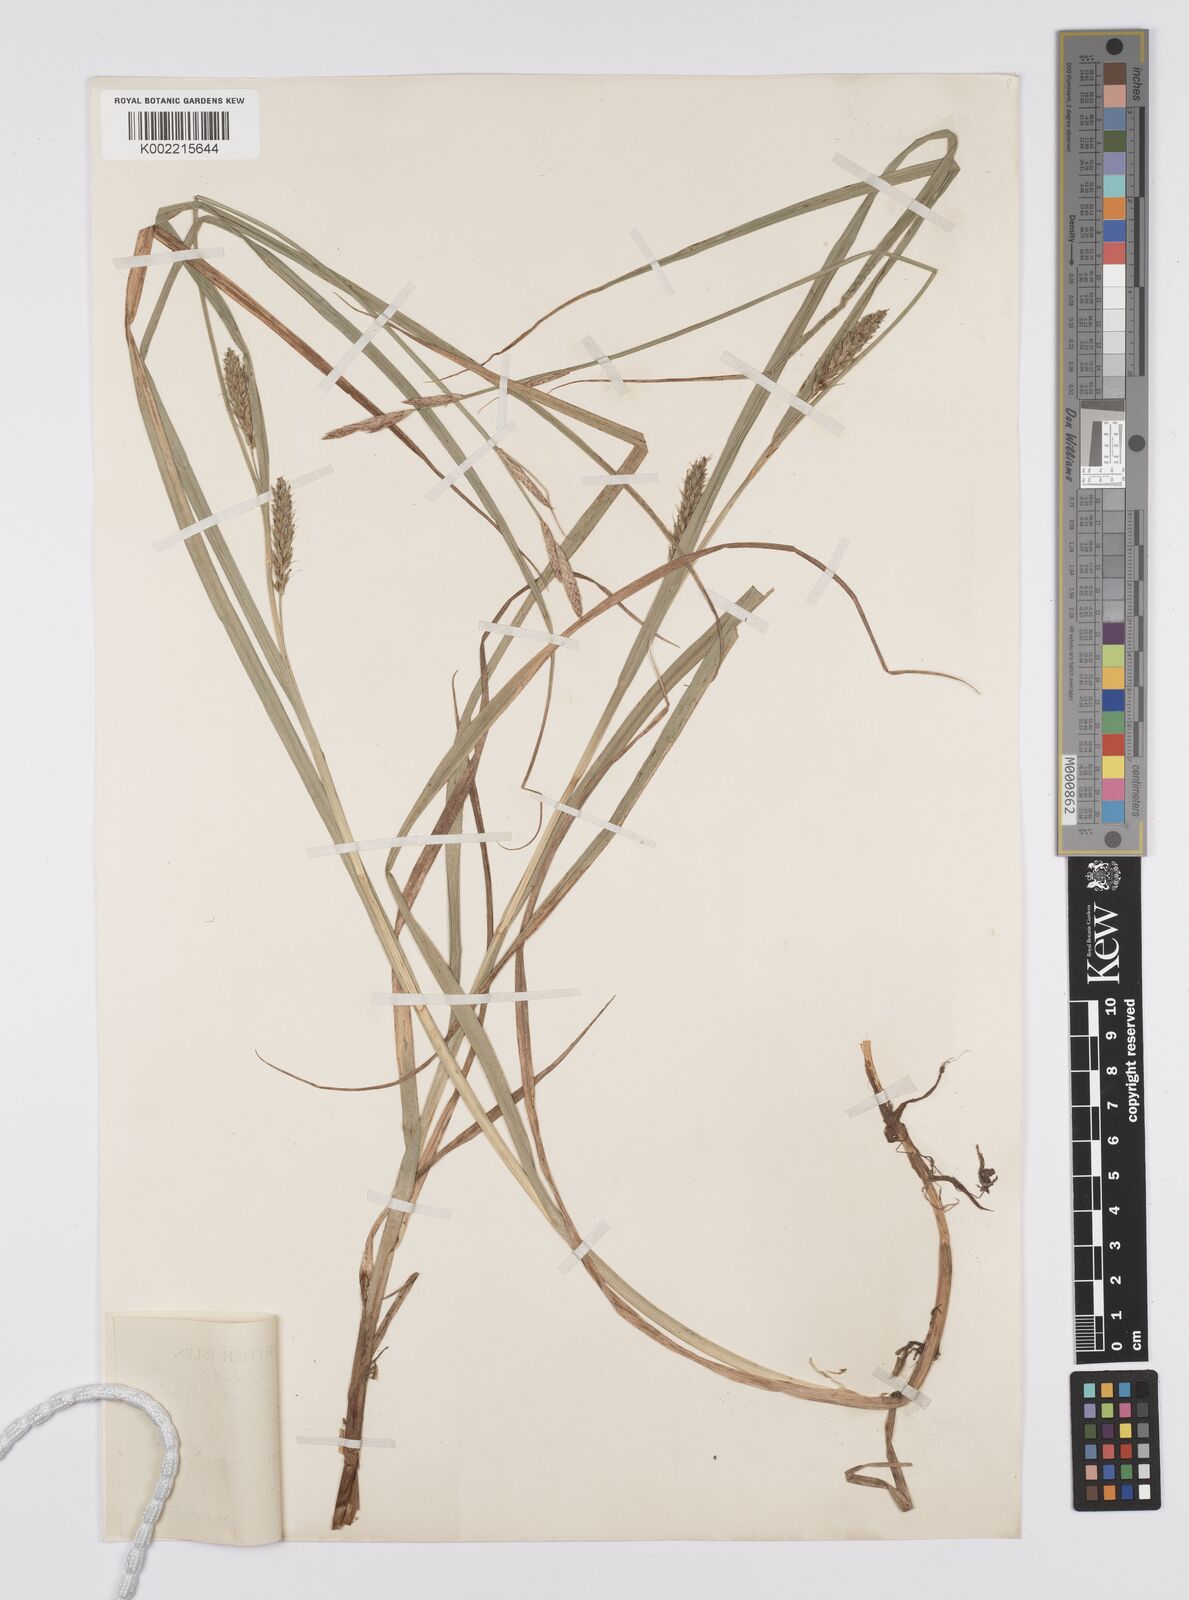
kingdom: Plantae
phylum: Tracheophyta
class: Liliopsida
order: Poales
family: Cyperaceae
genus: Carex
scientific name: Carex hirta
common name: Hairy sedge
